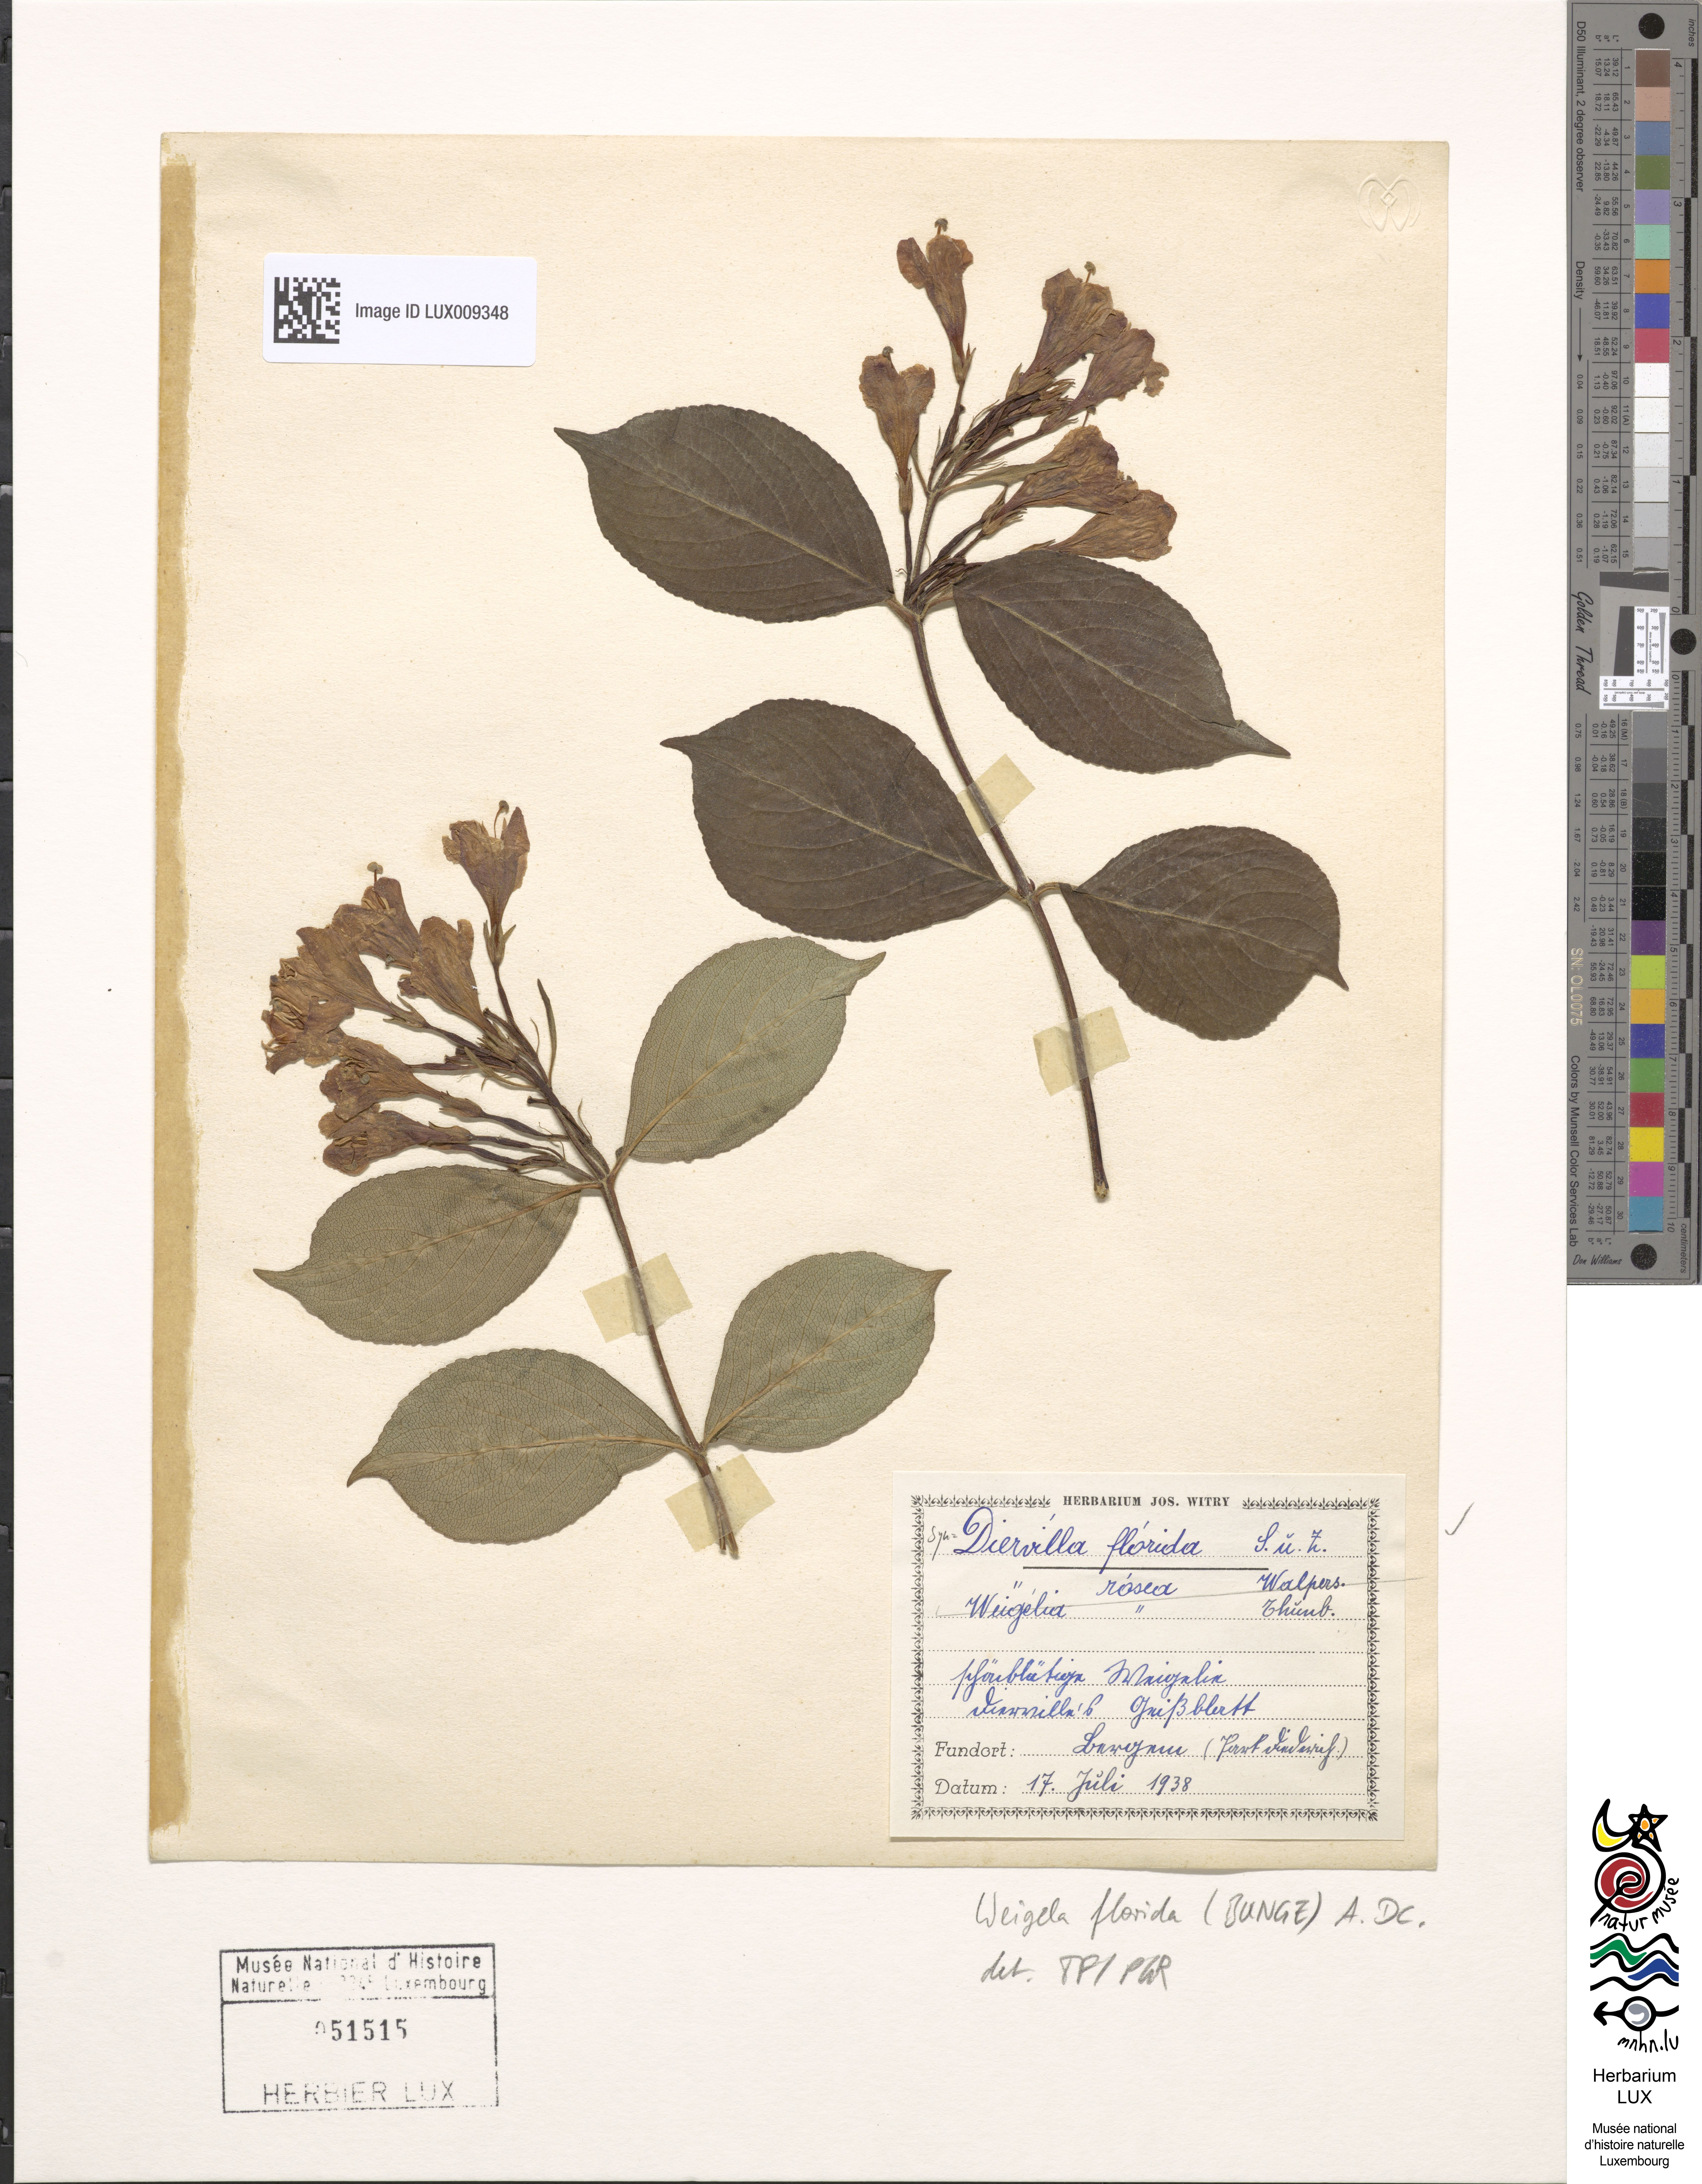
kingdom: Plantae
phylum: Tracheophyta
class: Magnoliopsida
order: Dipsacales
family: Caprifoliaceae
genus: Weigela
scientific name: Weigela florida
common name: Weigelia
